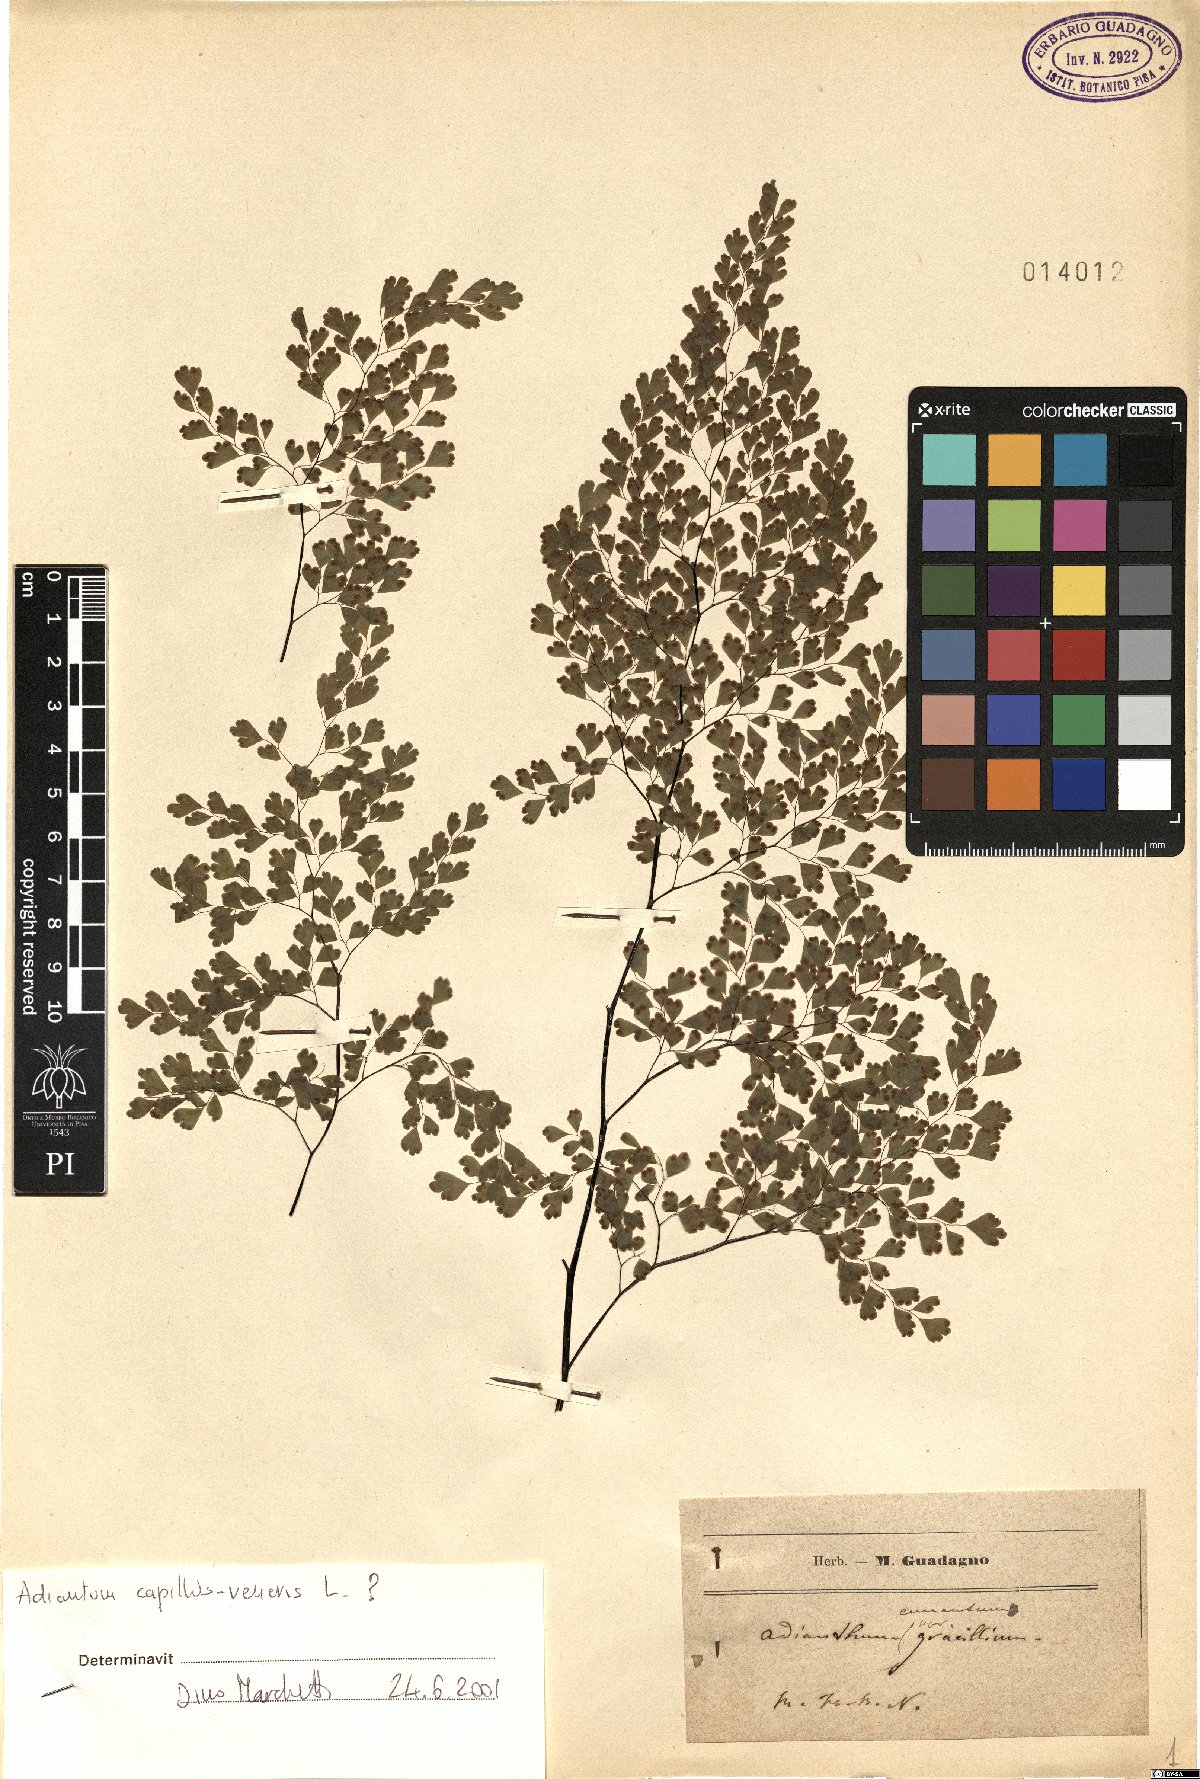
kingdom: Plantae
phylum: Tracheophyta
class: Polypodiopsida
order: Polypodiales
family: Pteridaceae
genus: Adiantum
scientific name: Adiantum capillus-veneris
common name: Maidenhair fern
